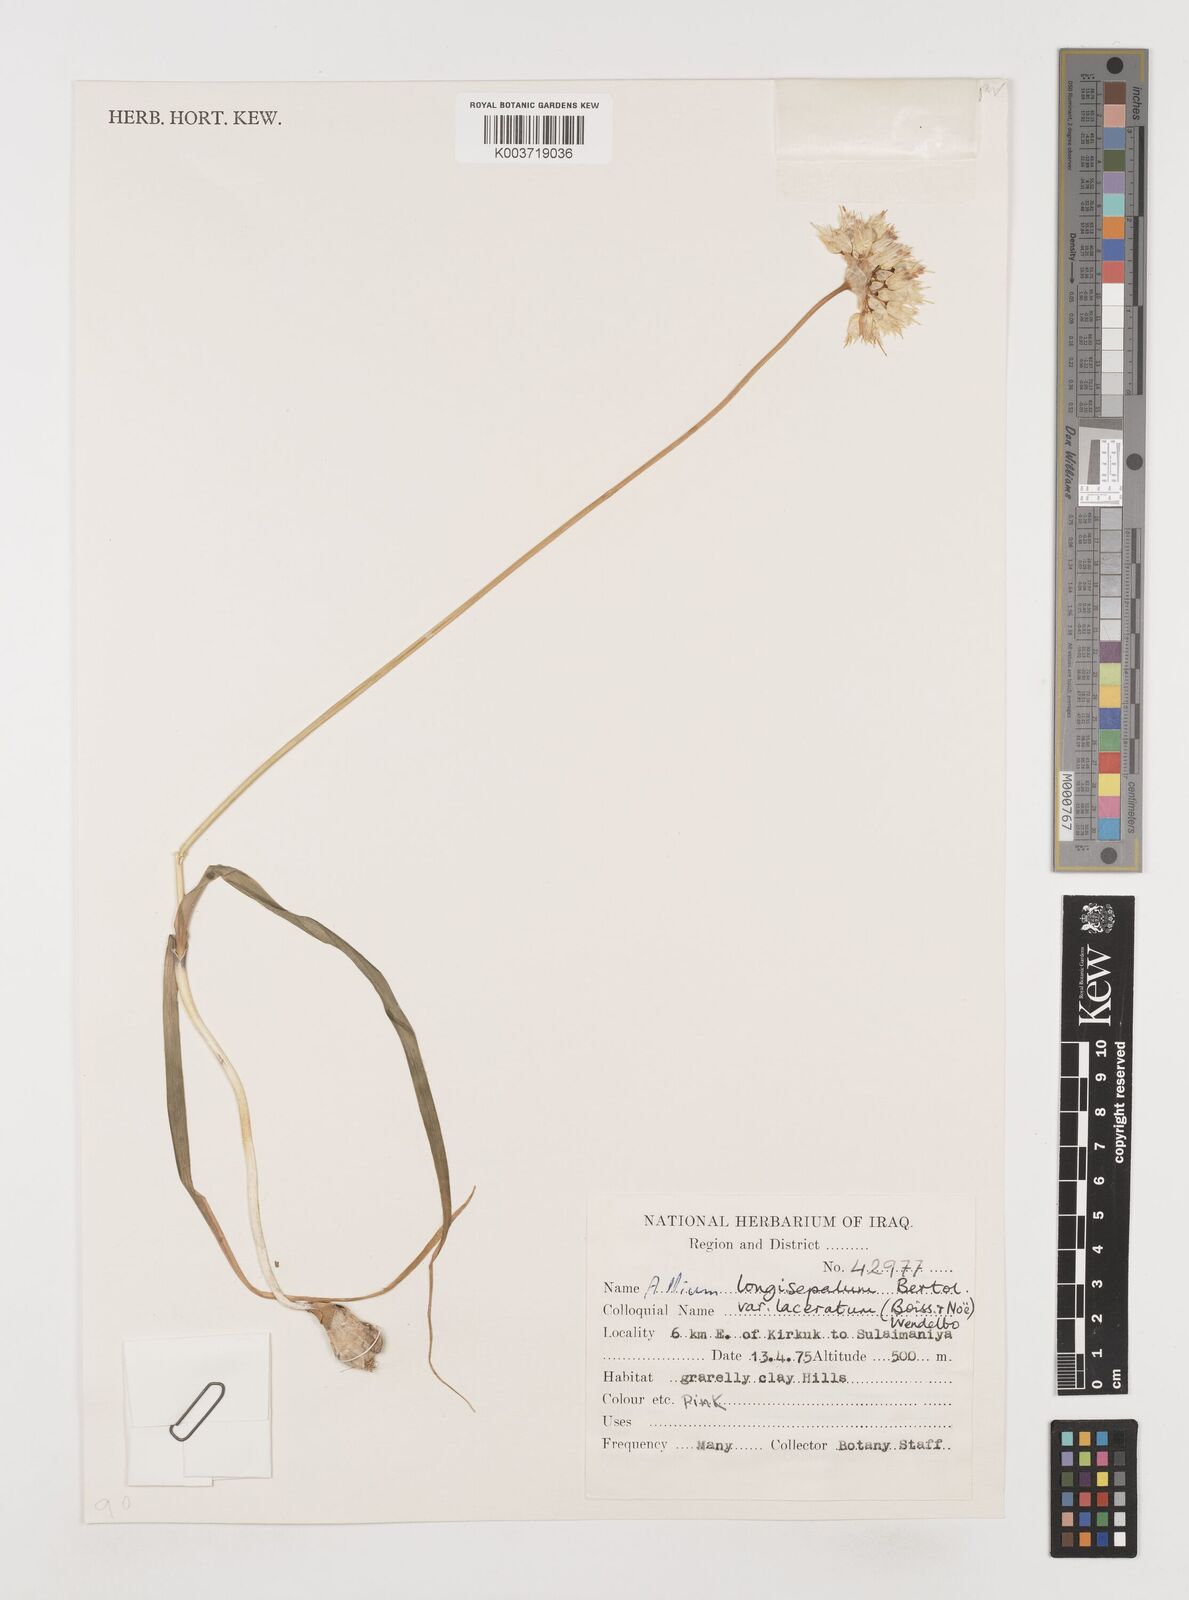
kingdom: Plantae
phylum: Tracheophyta
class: Liliopsida
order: Asparagales
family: Amaryllidaceae
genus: Allium
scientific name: Allium longisepalum
